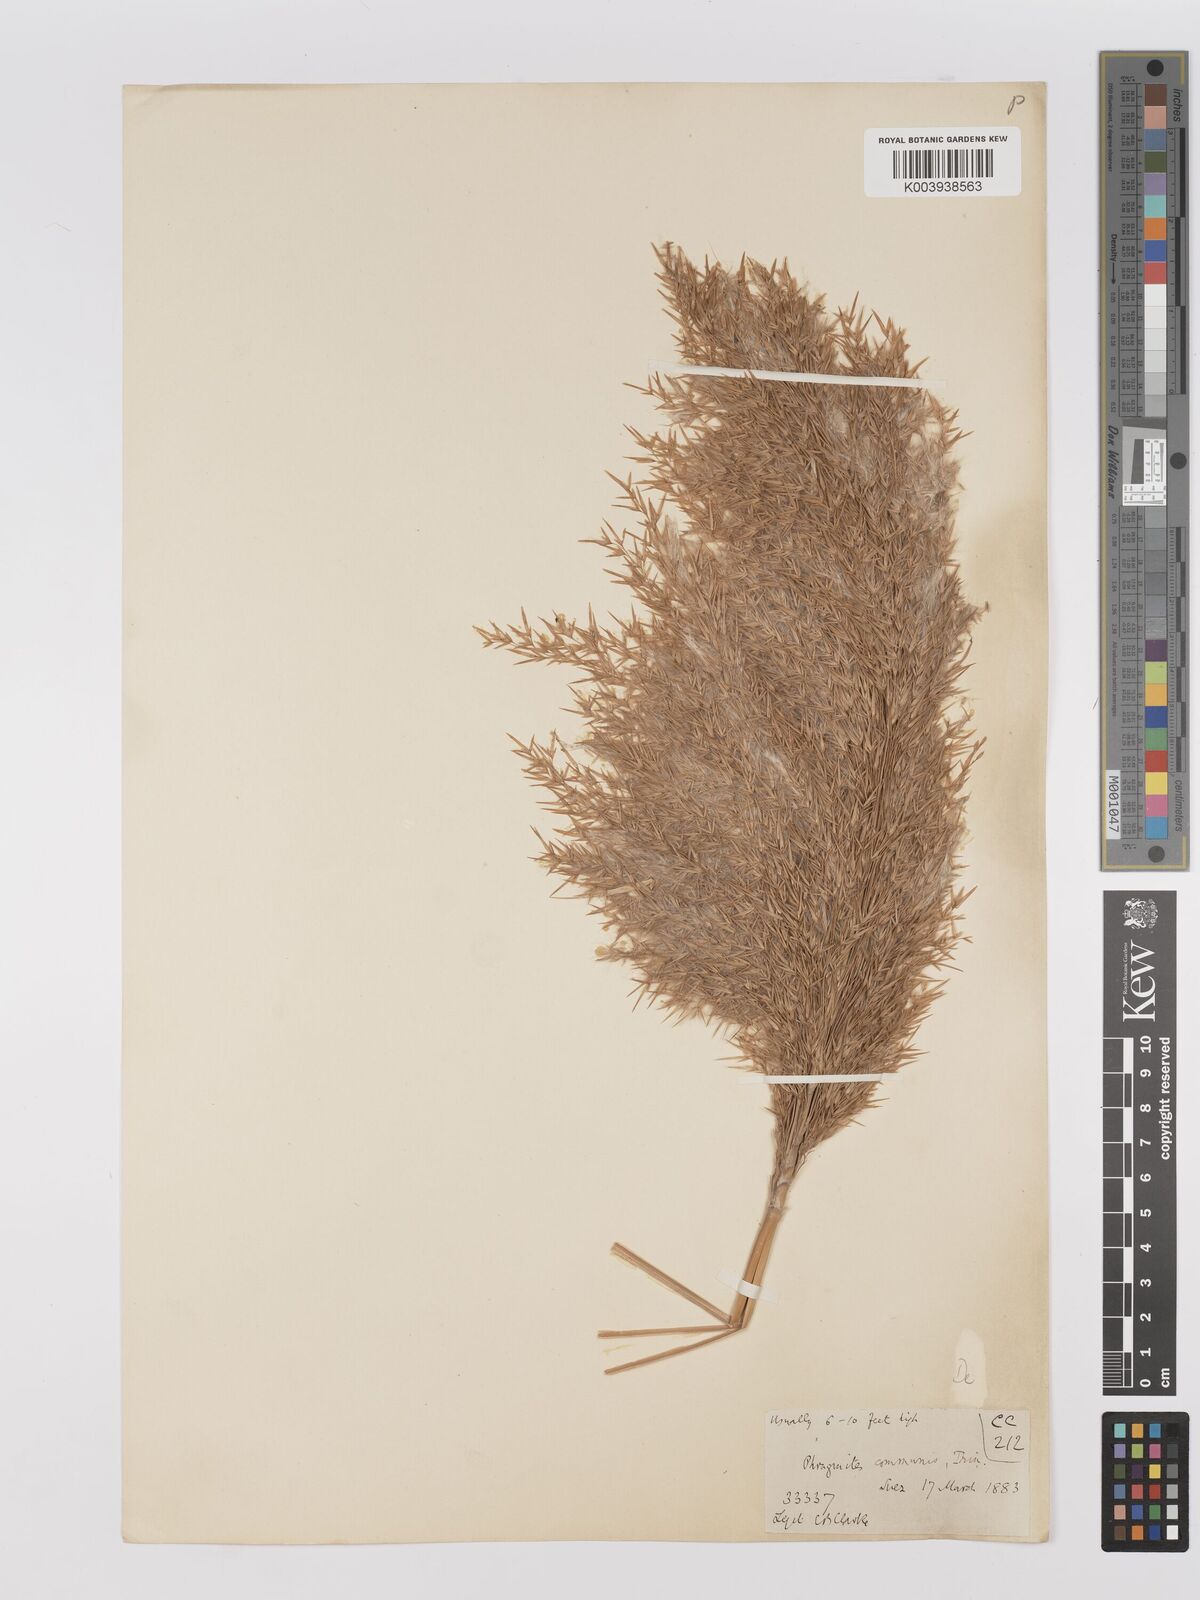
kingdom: Plantae
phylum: Tracheophyta
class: Liliopsida
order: Poales
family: Poaceae
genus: Phragmites
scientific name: Phragmites australis
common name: Common reed
